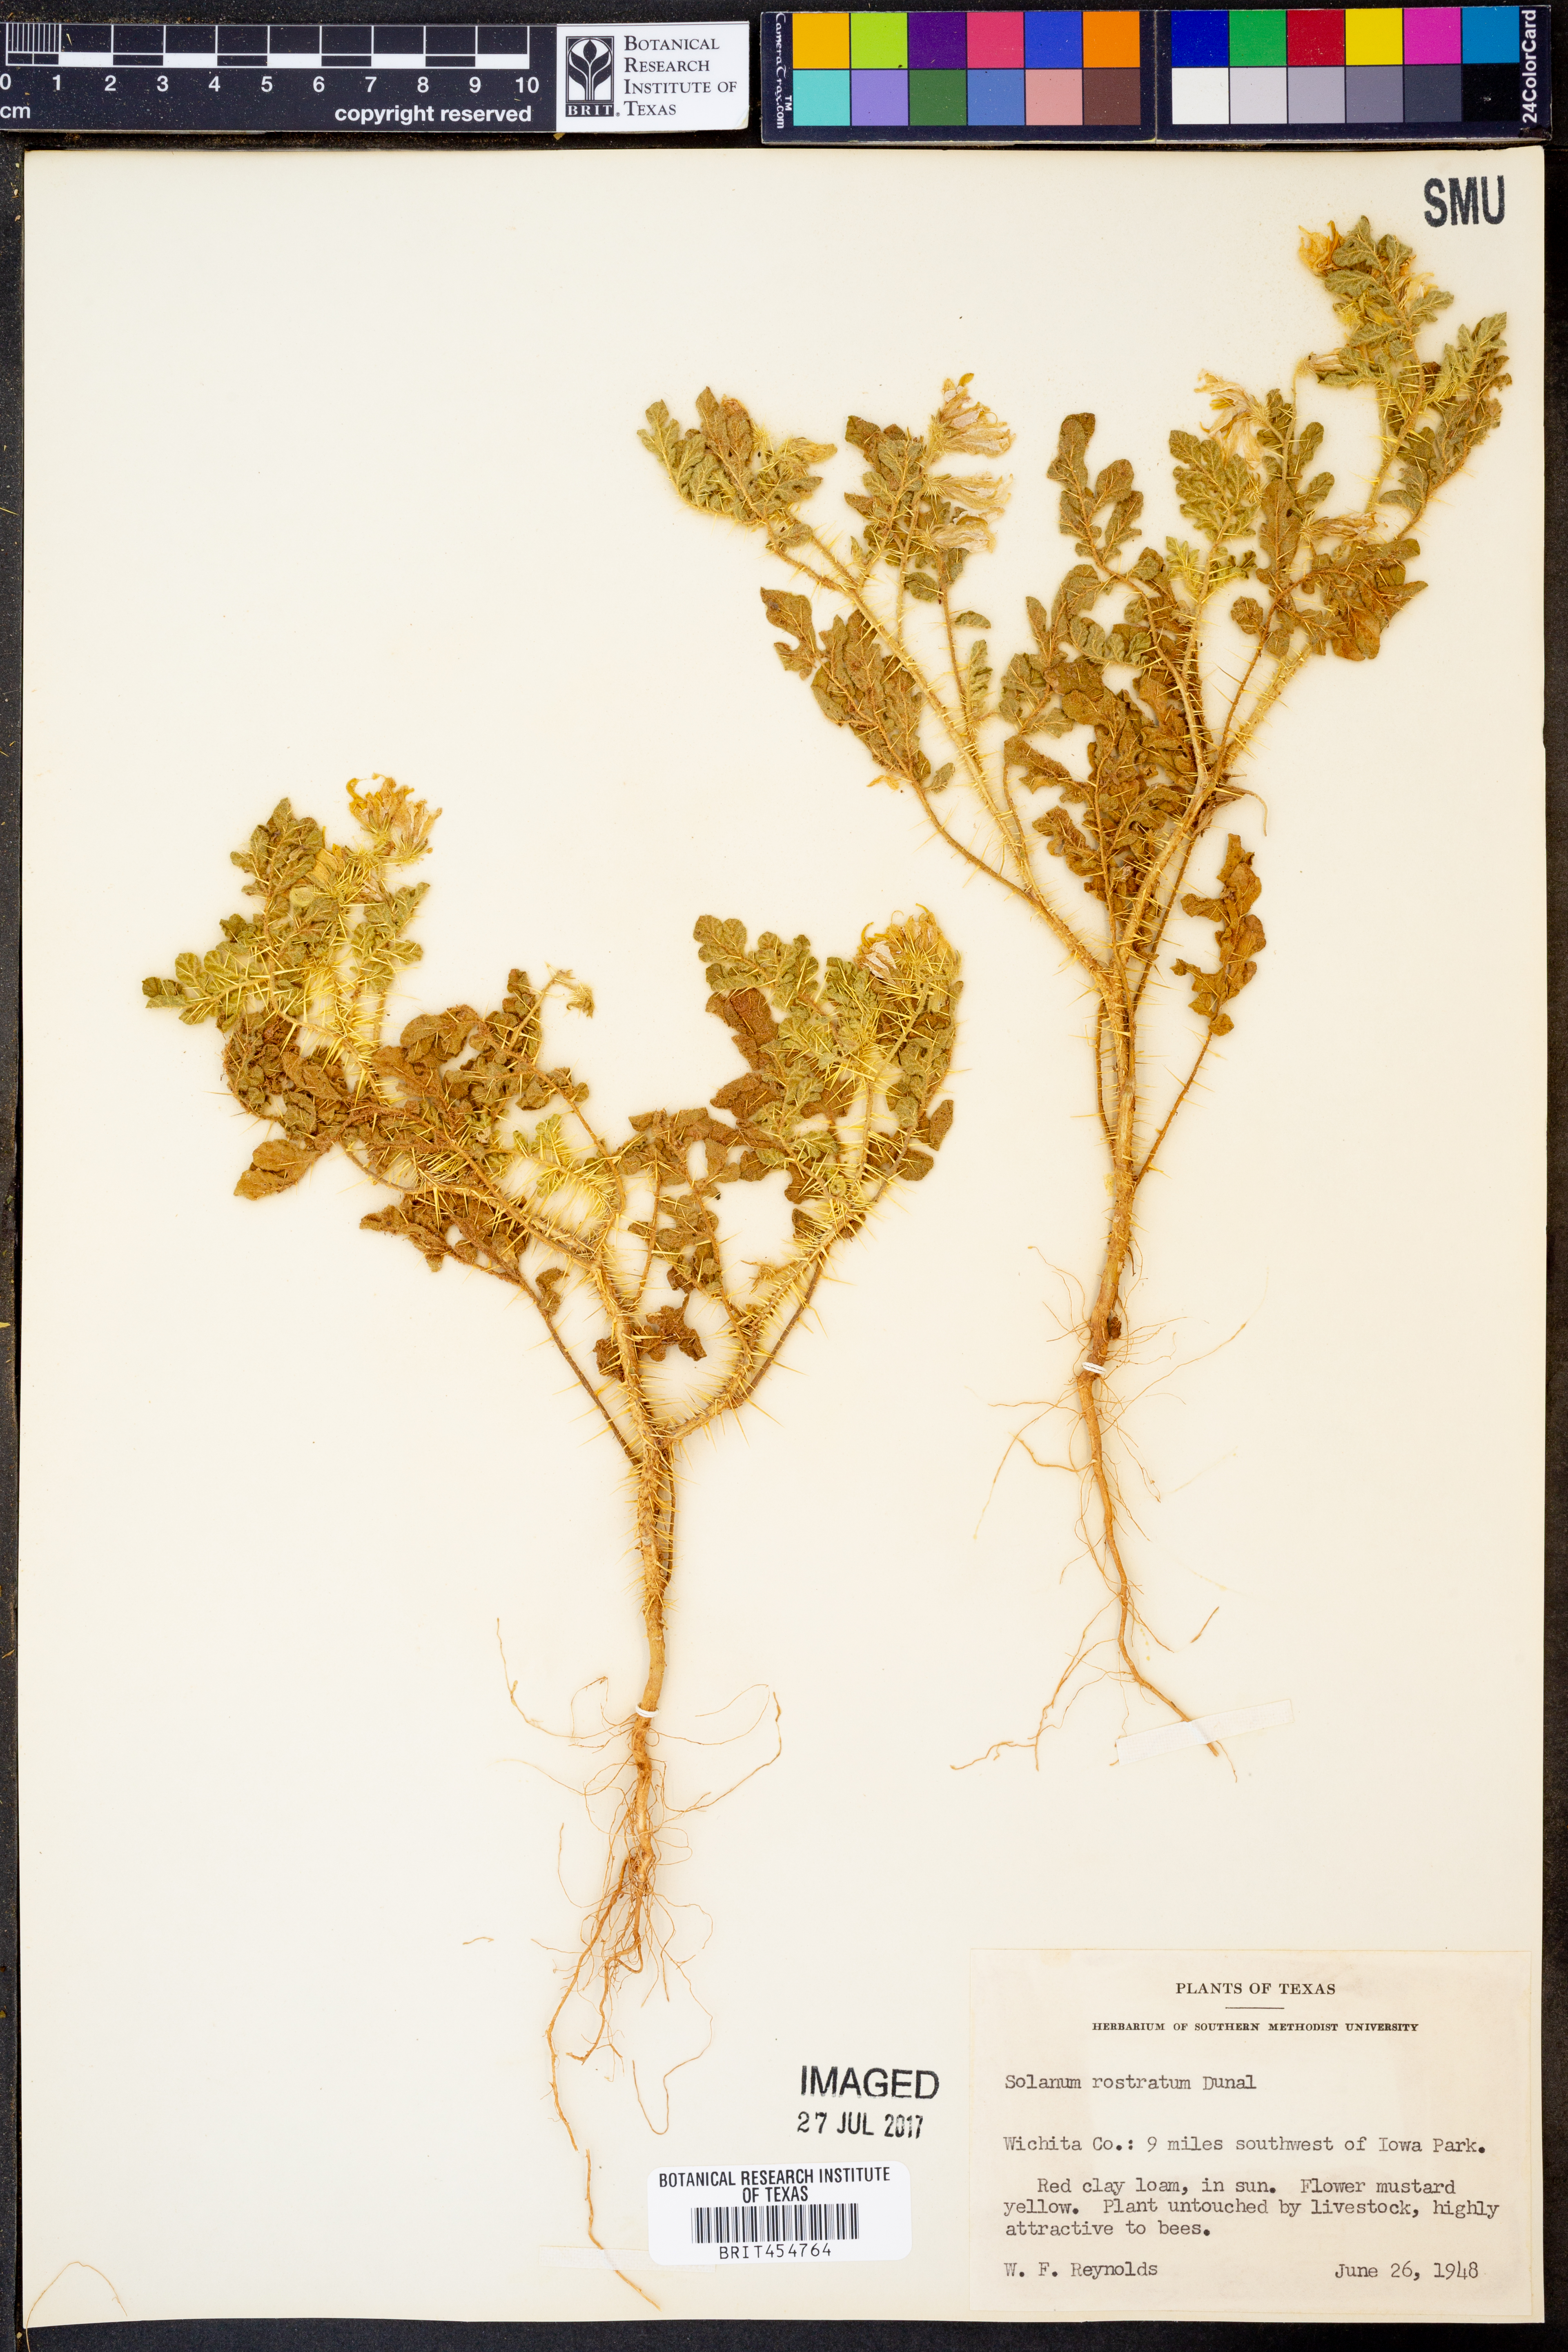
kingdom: Plantae
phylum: Tracheophyta
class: Magnoliopsida
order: Solanales
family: Solanaceae
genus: Solanum
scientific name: Solanum angustifolium
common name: Buffalobur nightshade
